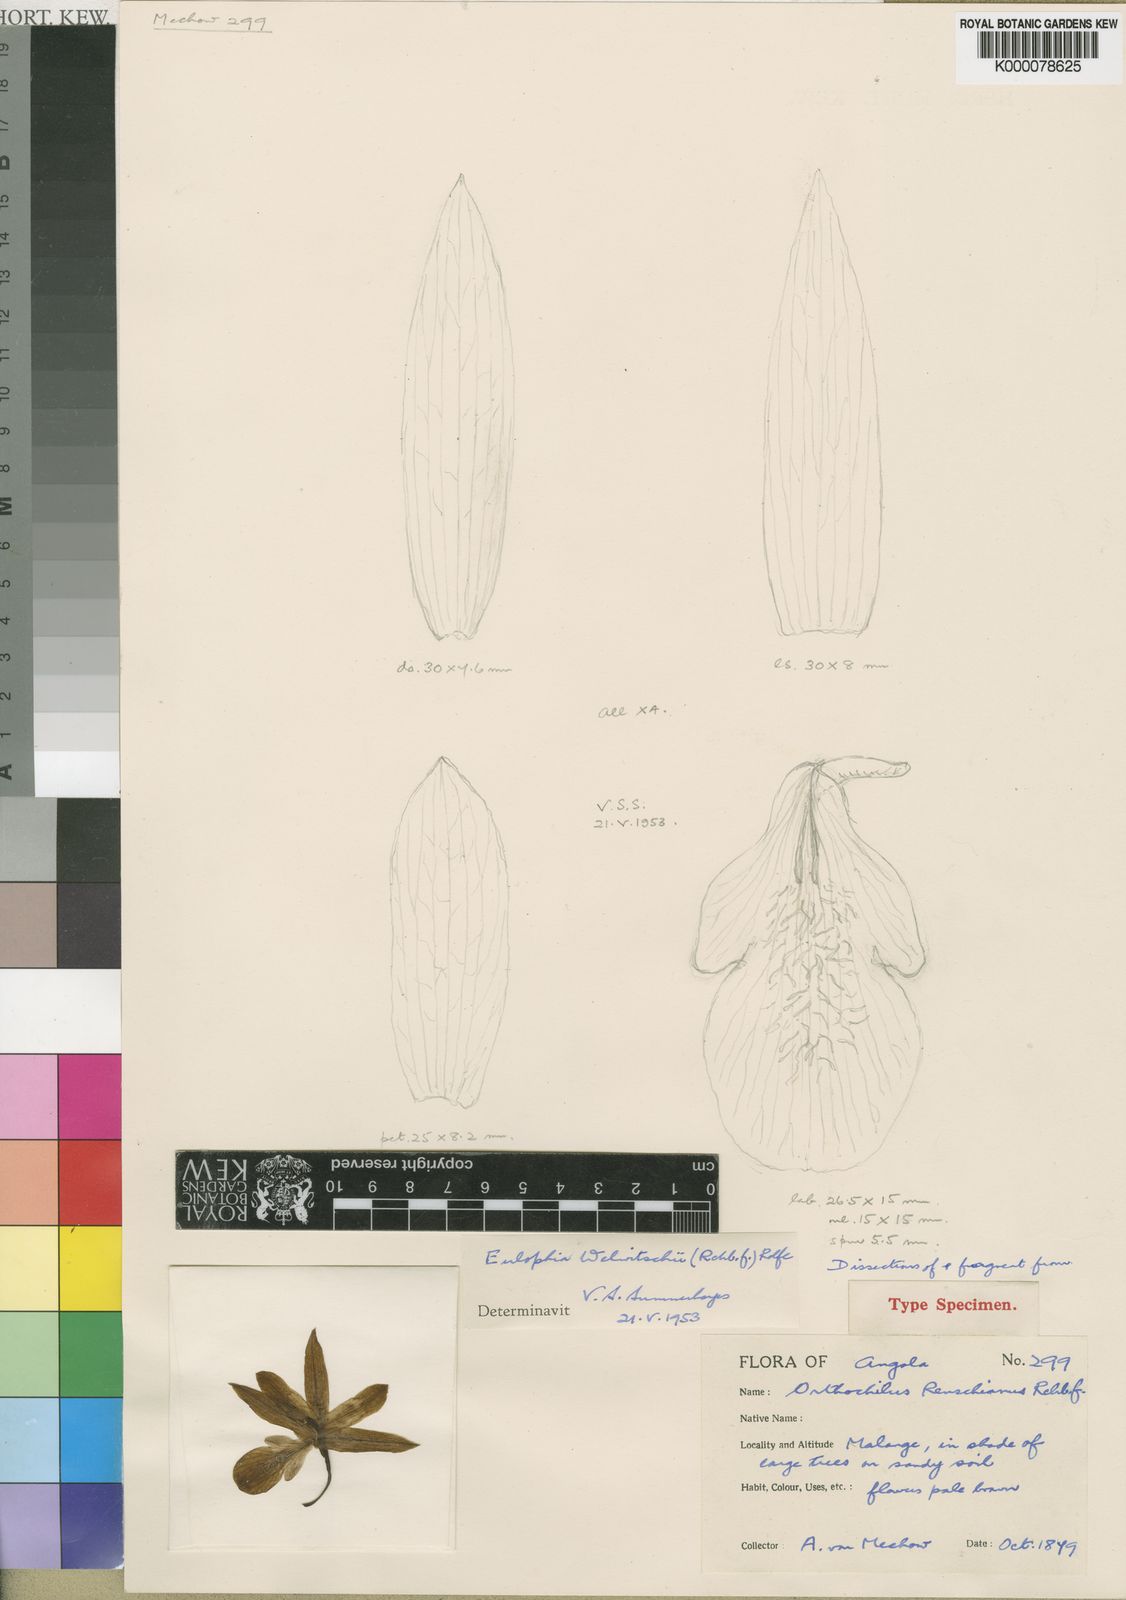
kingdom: Plantae
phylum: Tracheophyta
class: Liliopsida
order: Asparagales
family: Orchidaceae
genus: Eulophia
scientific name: Eulophia mechowii
